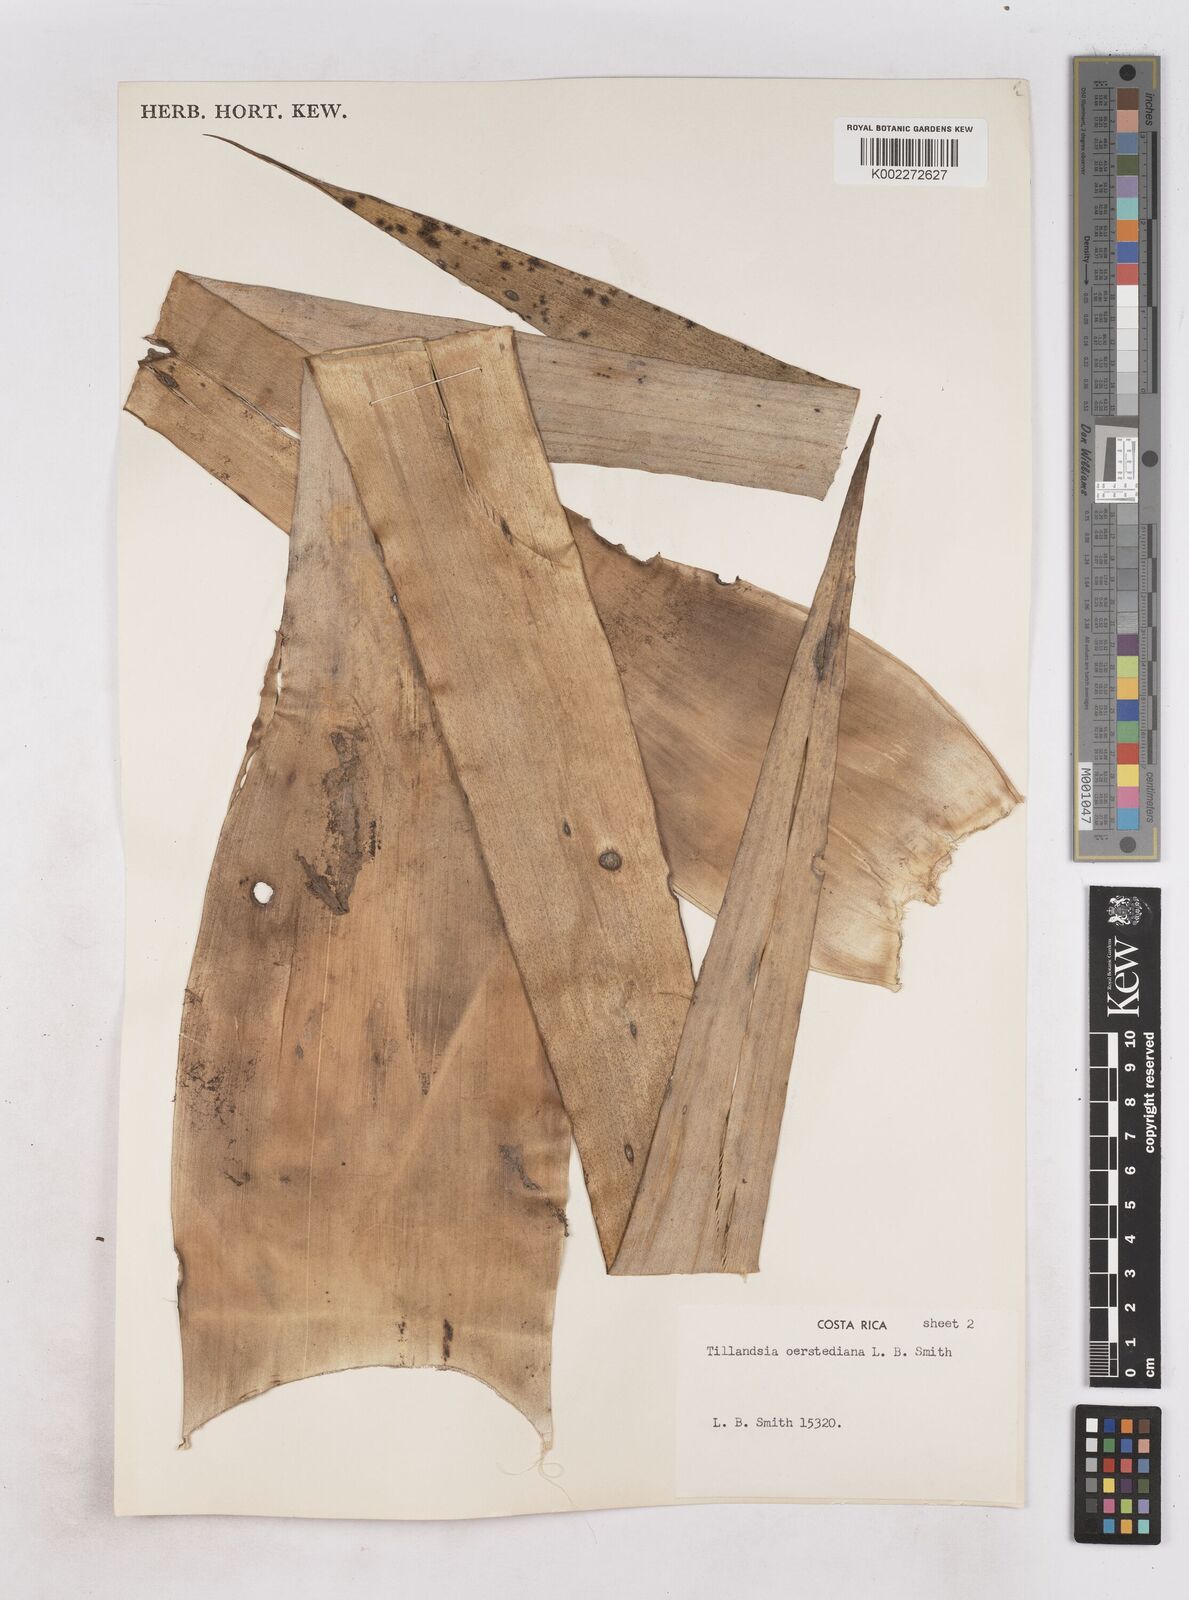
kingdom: Plantae
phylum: Tracheophyta
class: Liliopsida
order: Poales
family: Bromeliaceae
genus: Tillandsia
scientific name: Tillandsia oerstediana
